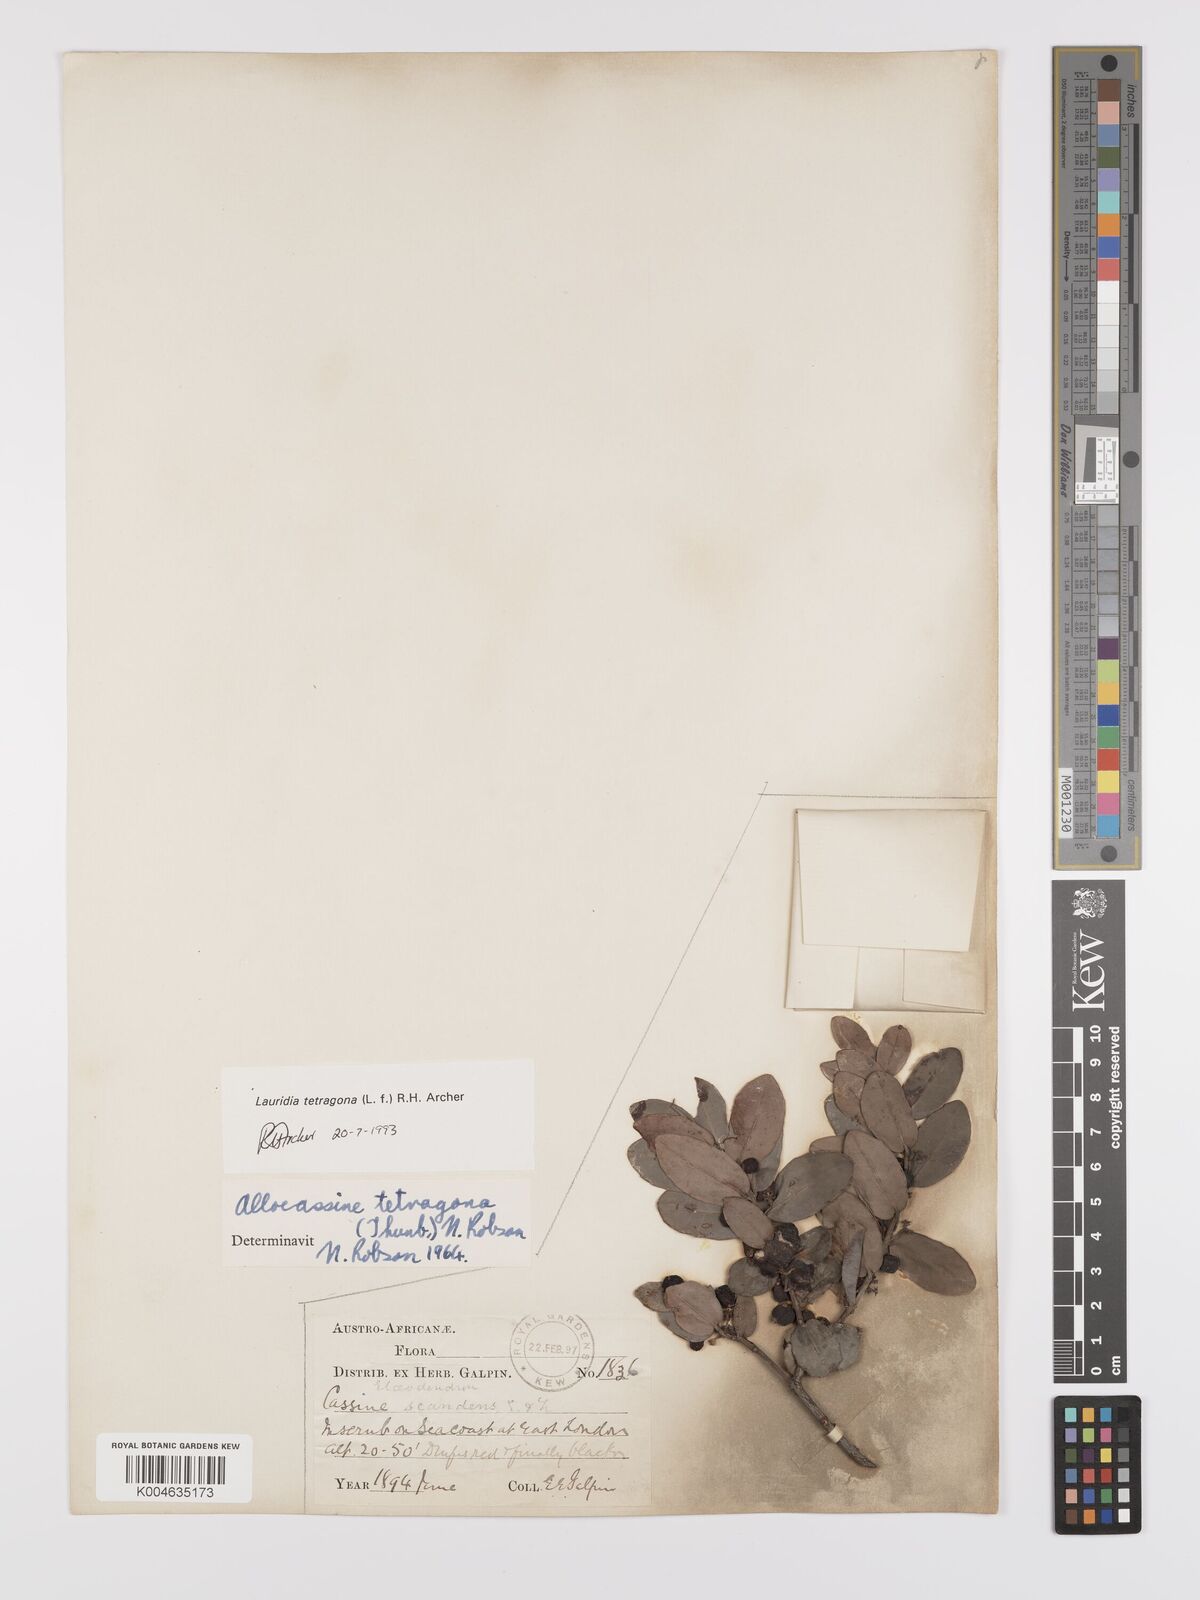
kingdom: Plantae
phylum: Tracheophyta
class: Magnoliopsida
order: Celastrales
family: Celastraceae
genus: Lauridia
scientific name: Lauridia tetragona
